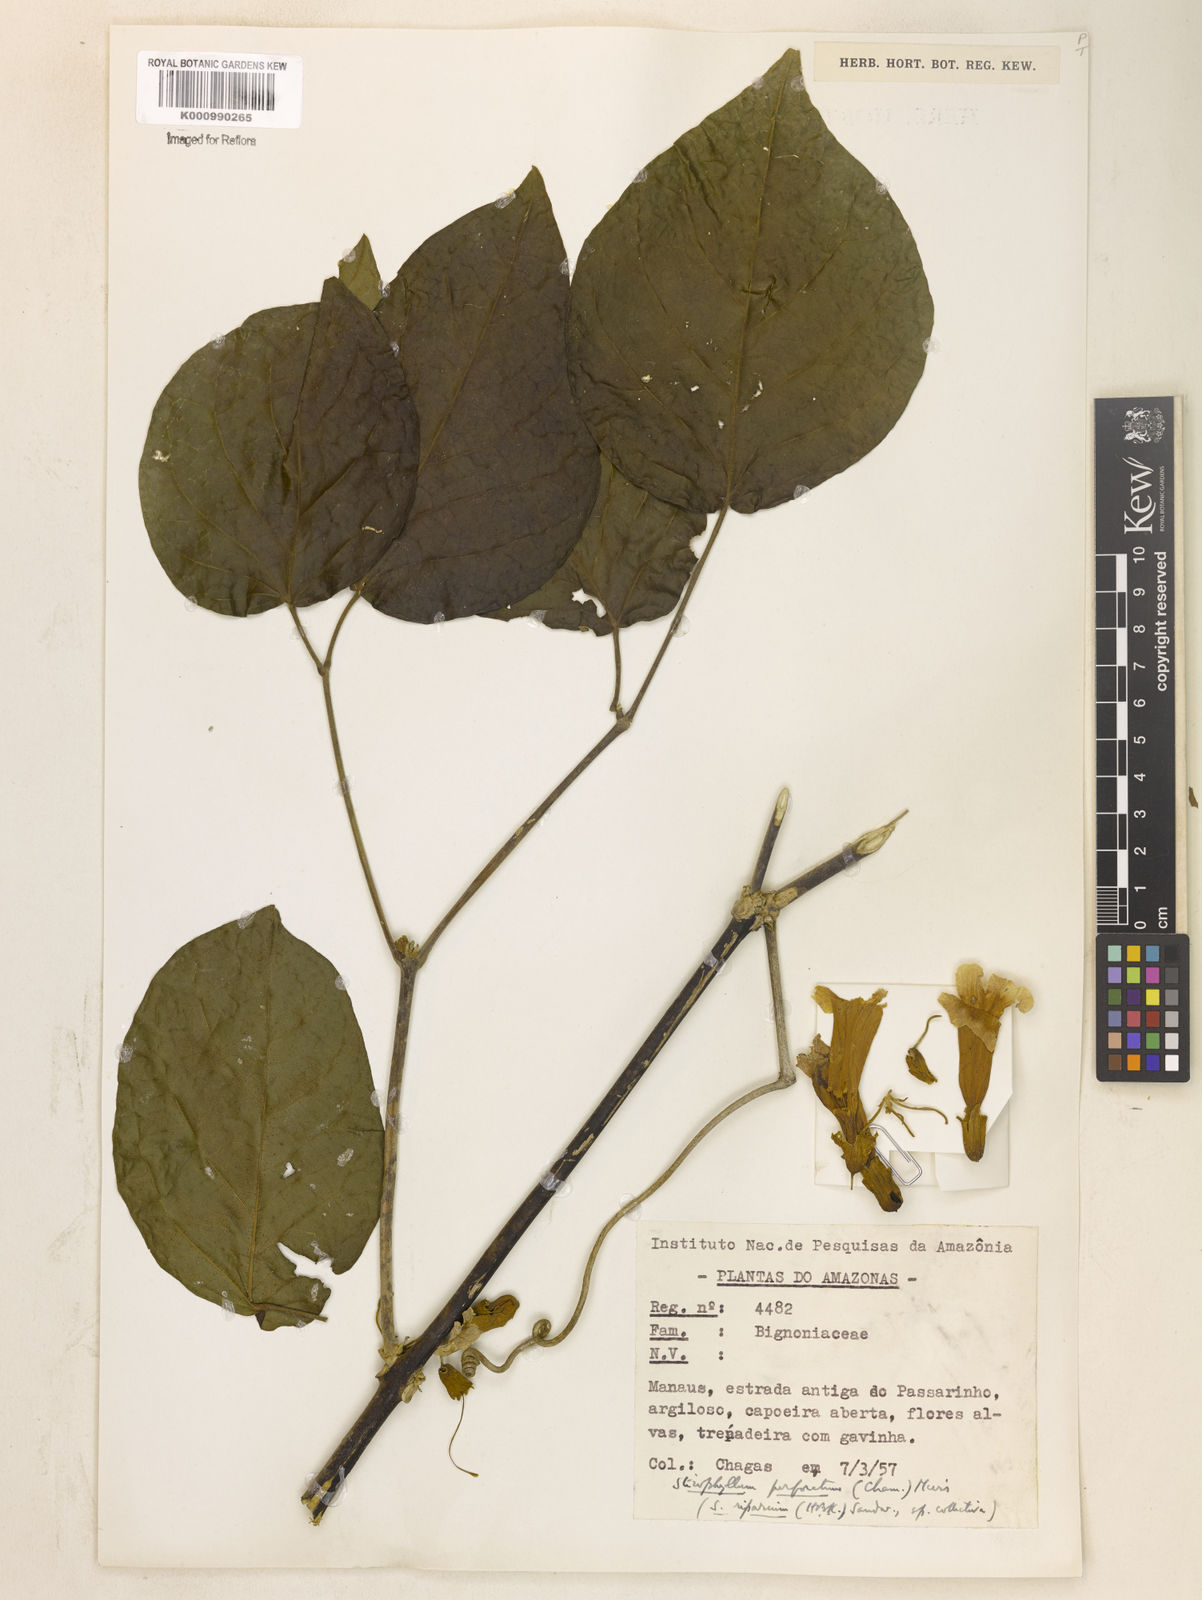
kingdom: Plantae
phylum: Tracheophyta
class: Magnoliopsida
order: Lamiales
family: Bignoniaceae
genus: Stizophyllum
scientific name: Stizophyllum riparium
